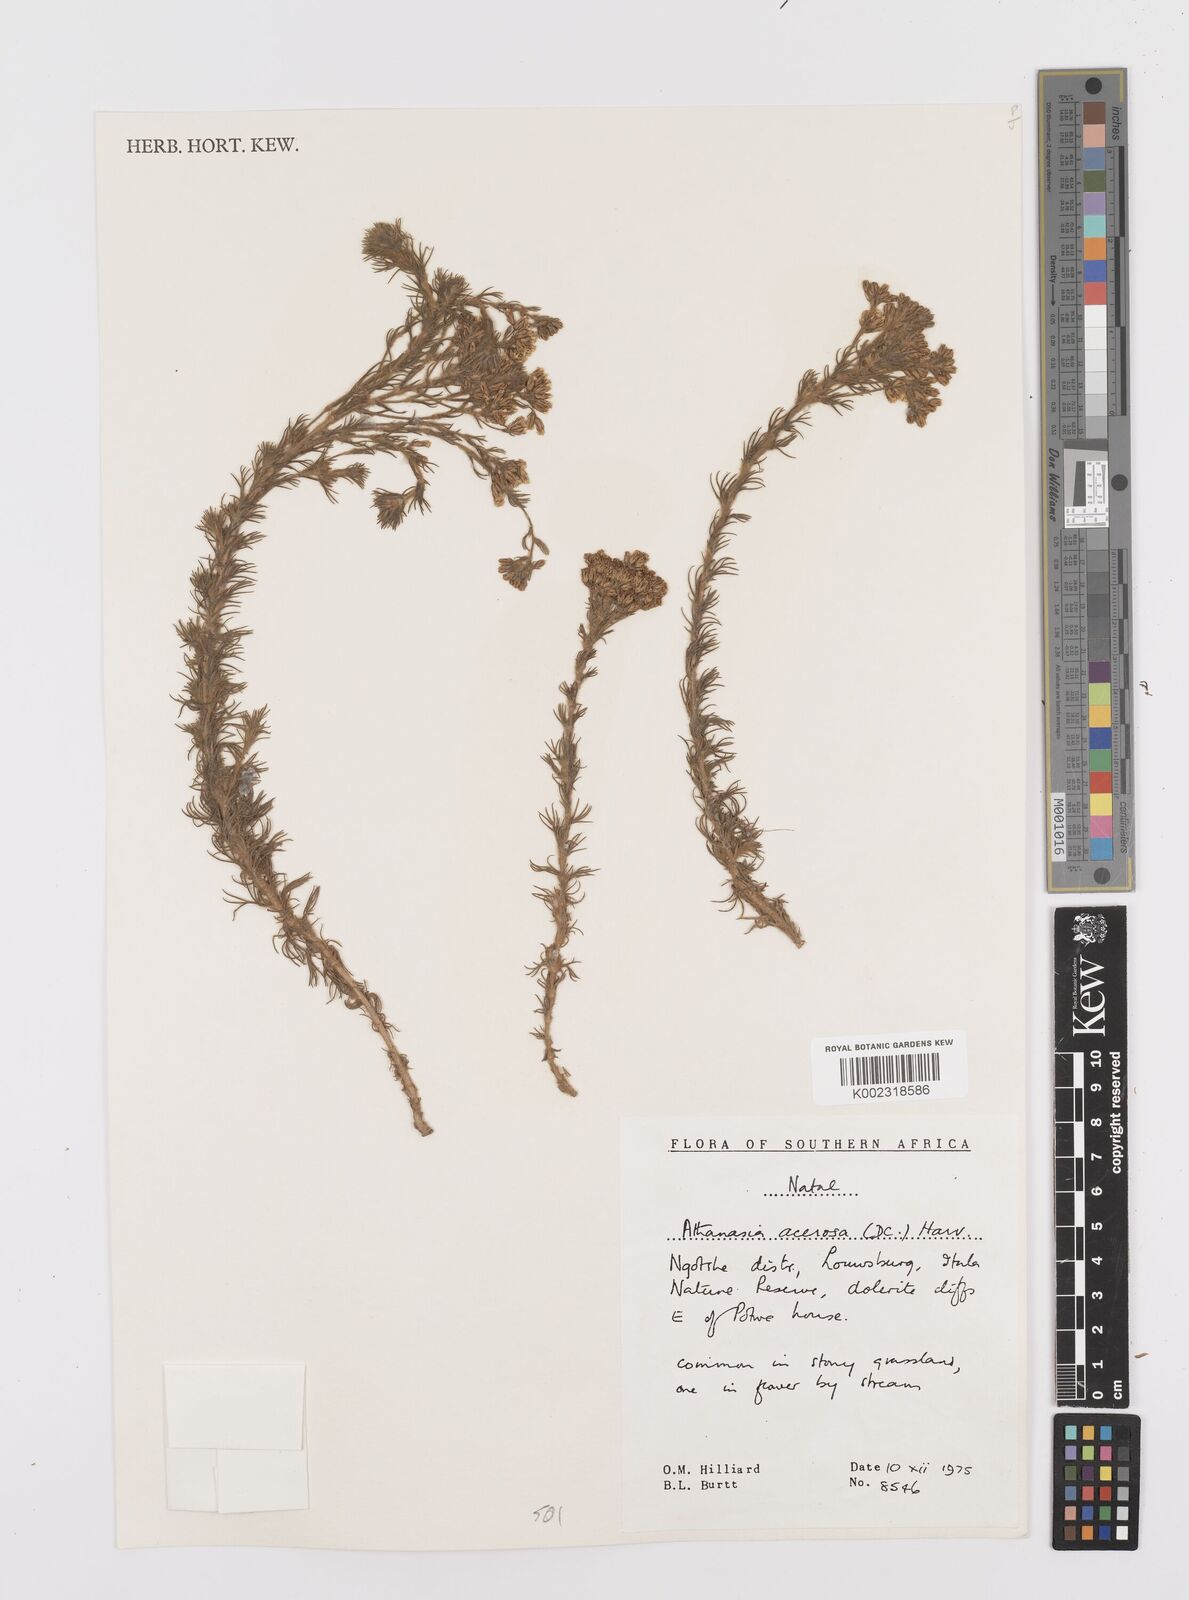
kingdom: Plantae
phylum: Tracheophyta
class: Magnoliopsida
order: Asterales
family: Asteraceae
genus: Phymaspermum
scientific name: Phymaspermum acerosum
